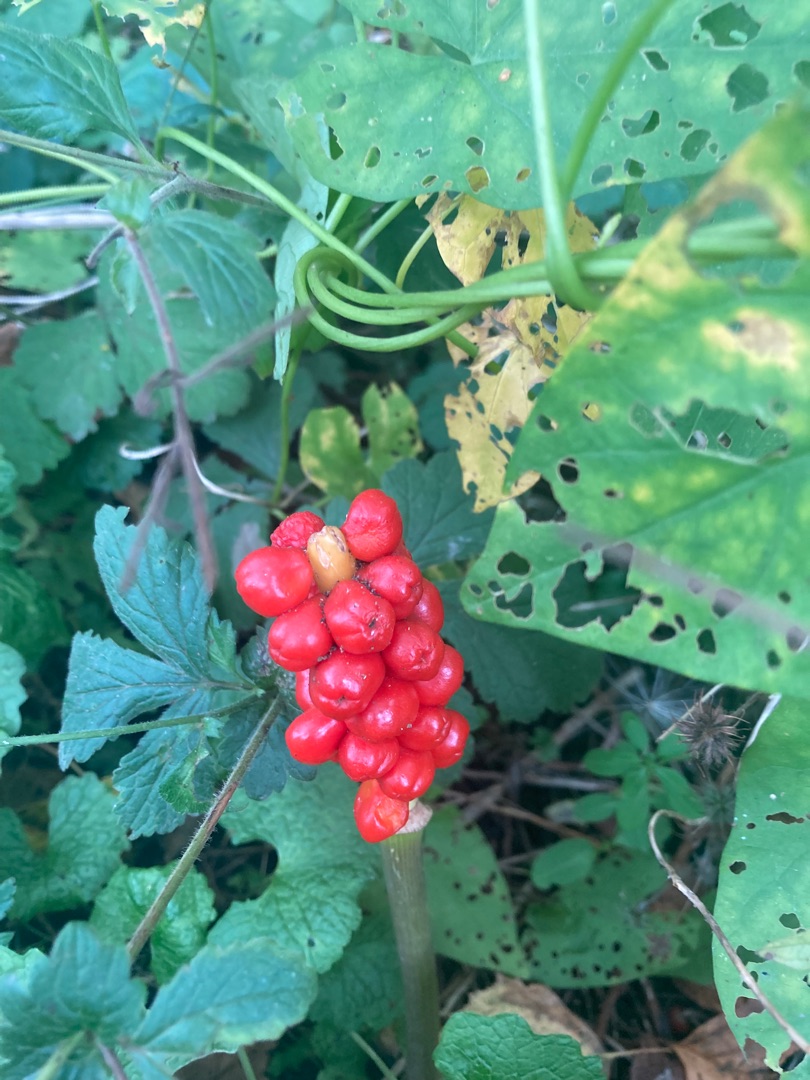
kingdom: Plantae
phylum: Tracheophyta
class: Liliopsida
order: Alismatales
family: Araceae
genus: Arum
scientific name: Arum
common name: Arumslægten
